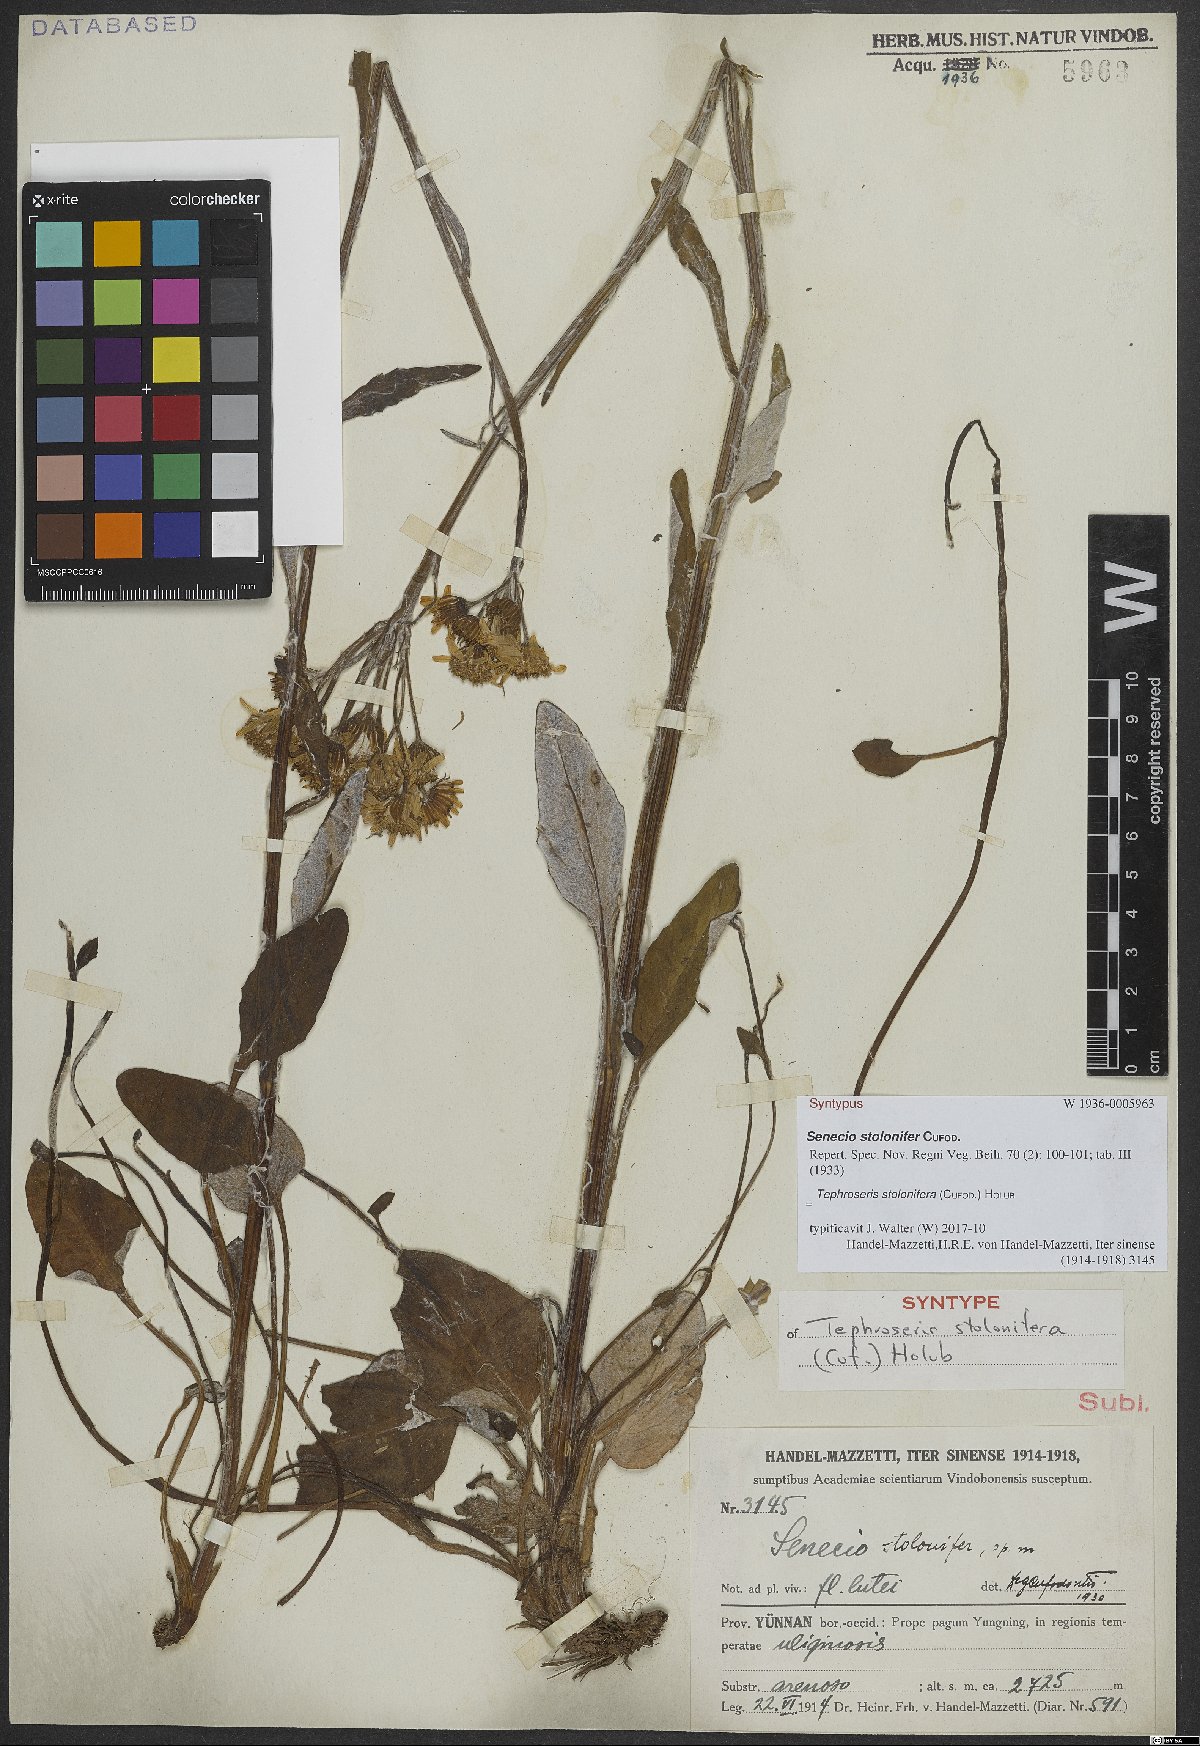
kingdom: Plantae
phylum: Tracheophyta
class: Magnoliopsida
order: Asterales
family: Asteraceae
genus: Tephroseris
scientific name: Tephroseris stolonifera
